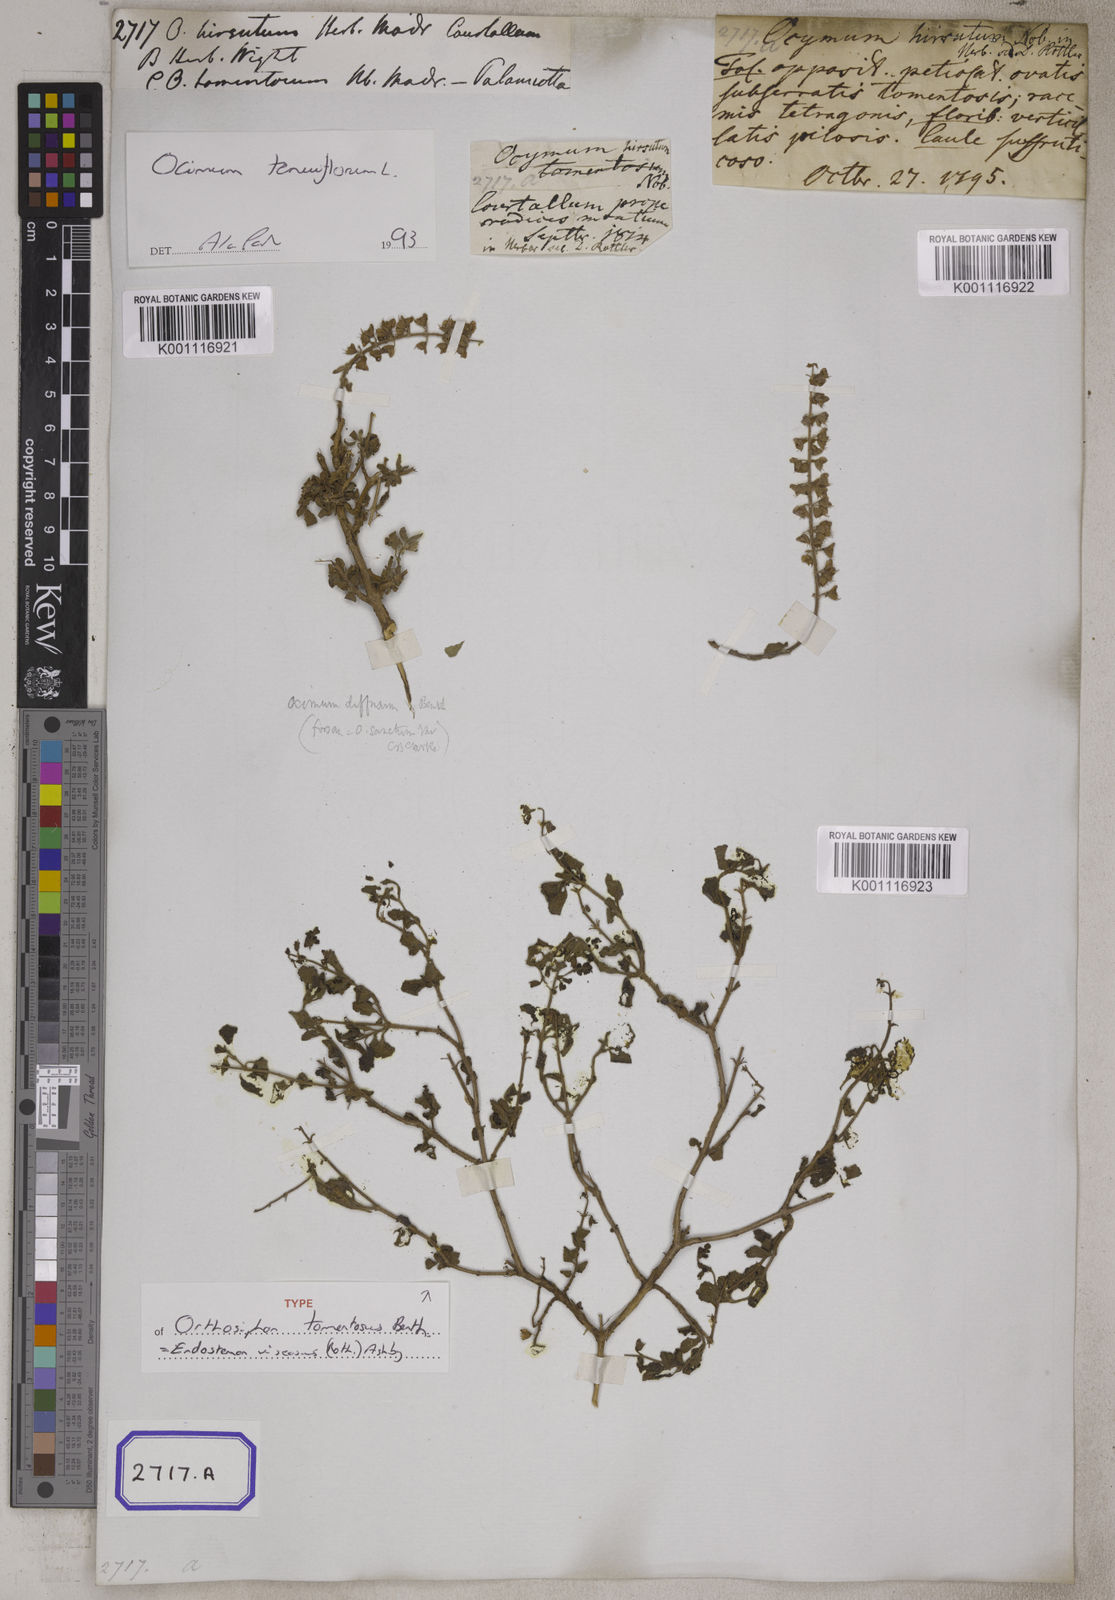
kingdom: Plantae
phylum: Tracheophyta
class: Magnoliopsida
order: Lamiales
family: Lamiaceae
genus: Ocimum
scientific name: Ocimum
